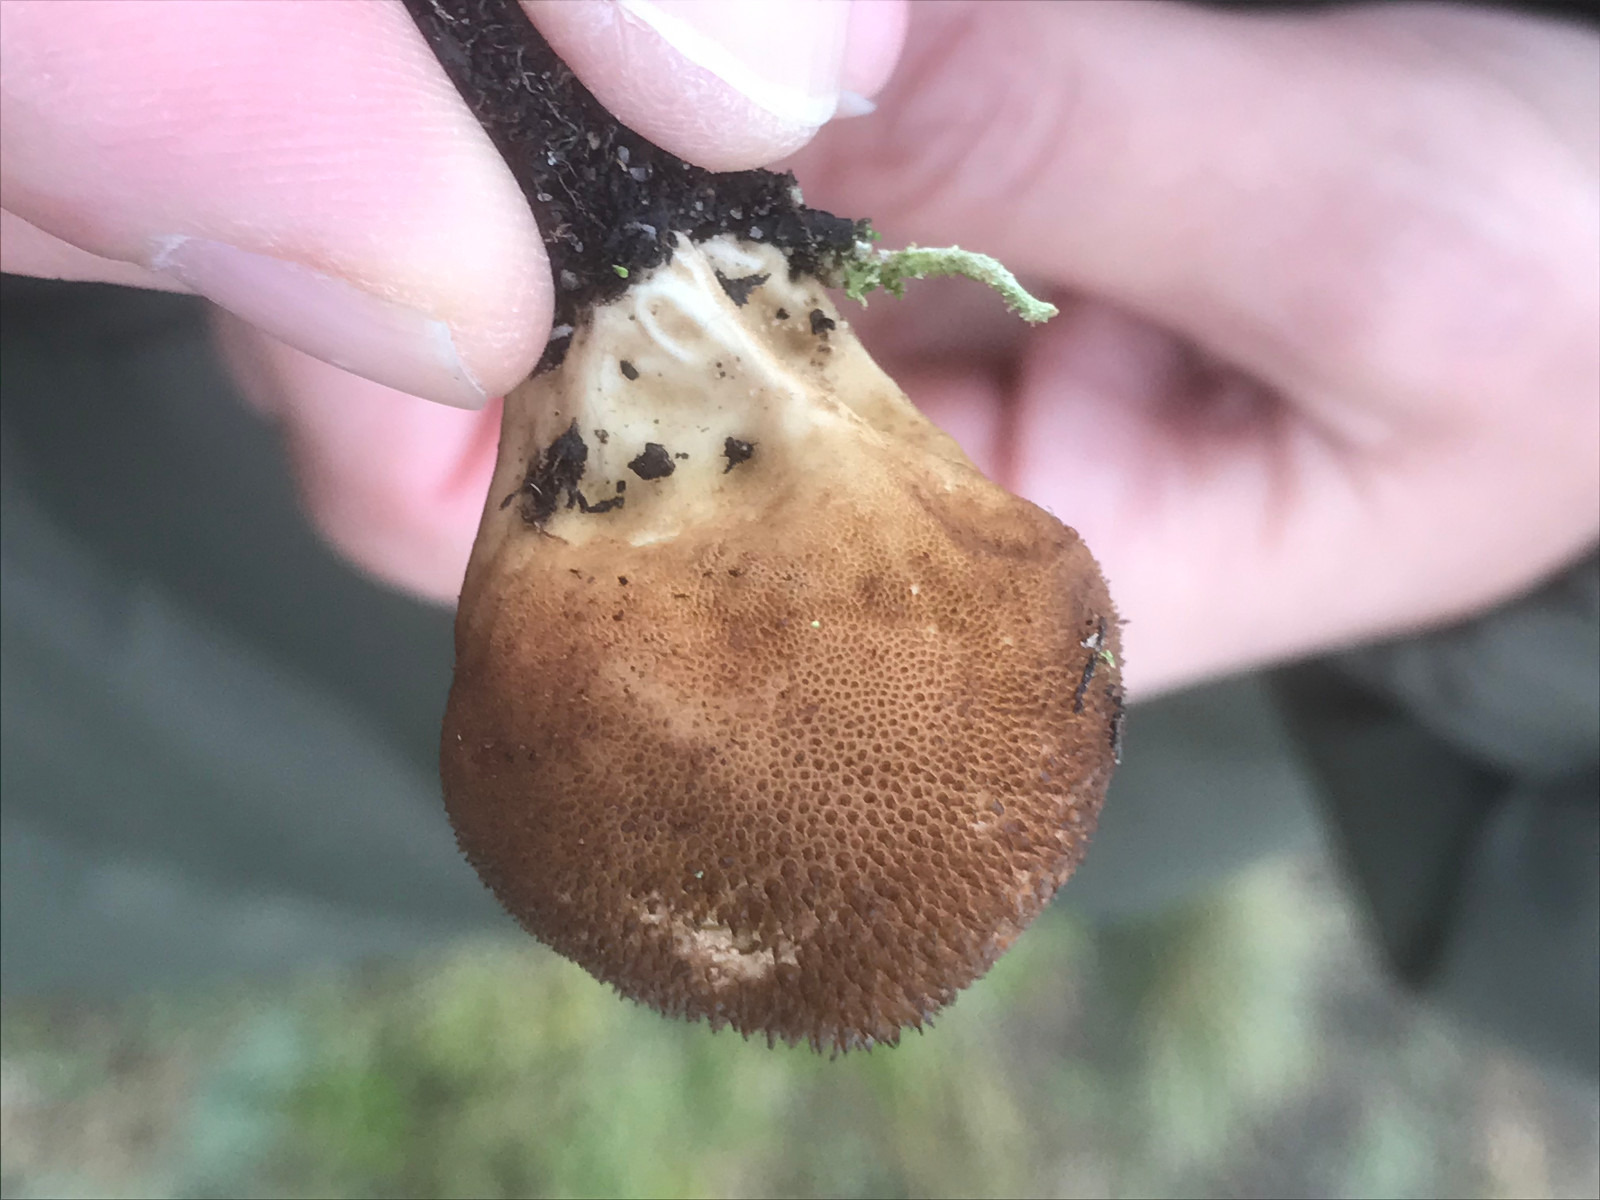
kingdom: Fungi
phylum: Basidiomycota
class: Agaricomycetes
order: Agaricales
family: Lycoperdaceae
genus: Lycoperdon
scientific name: Lycoperdon nigrescens
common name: sortagtig støvbold
